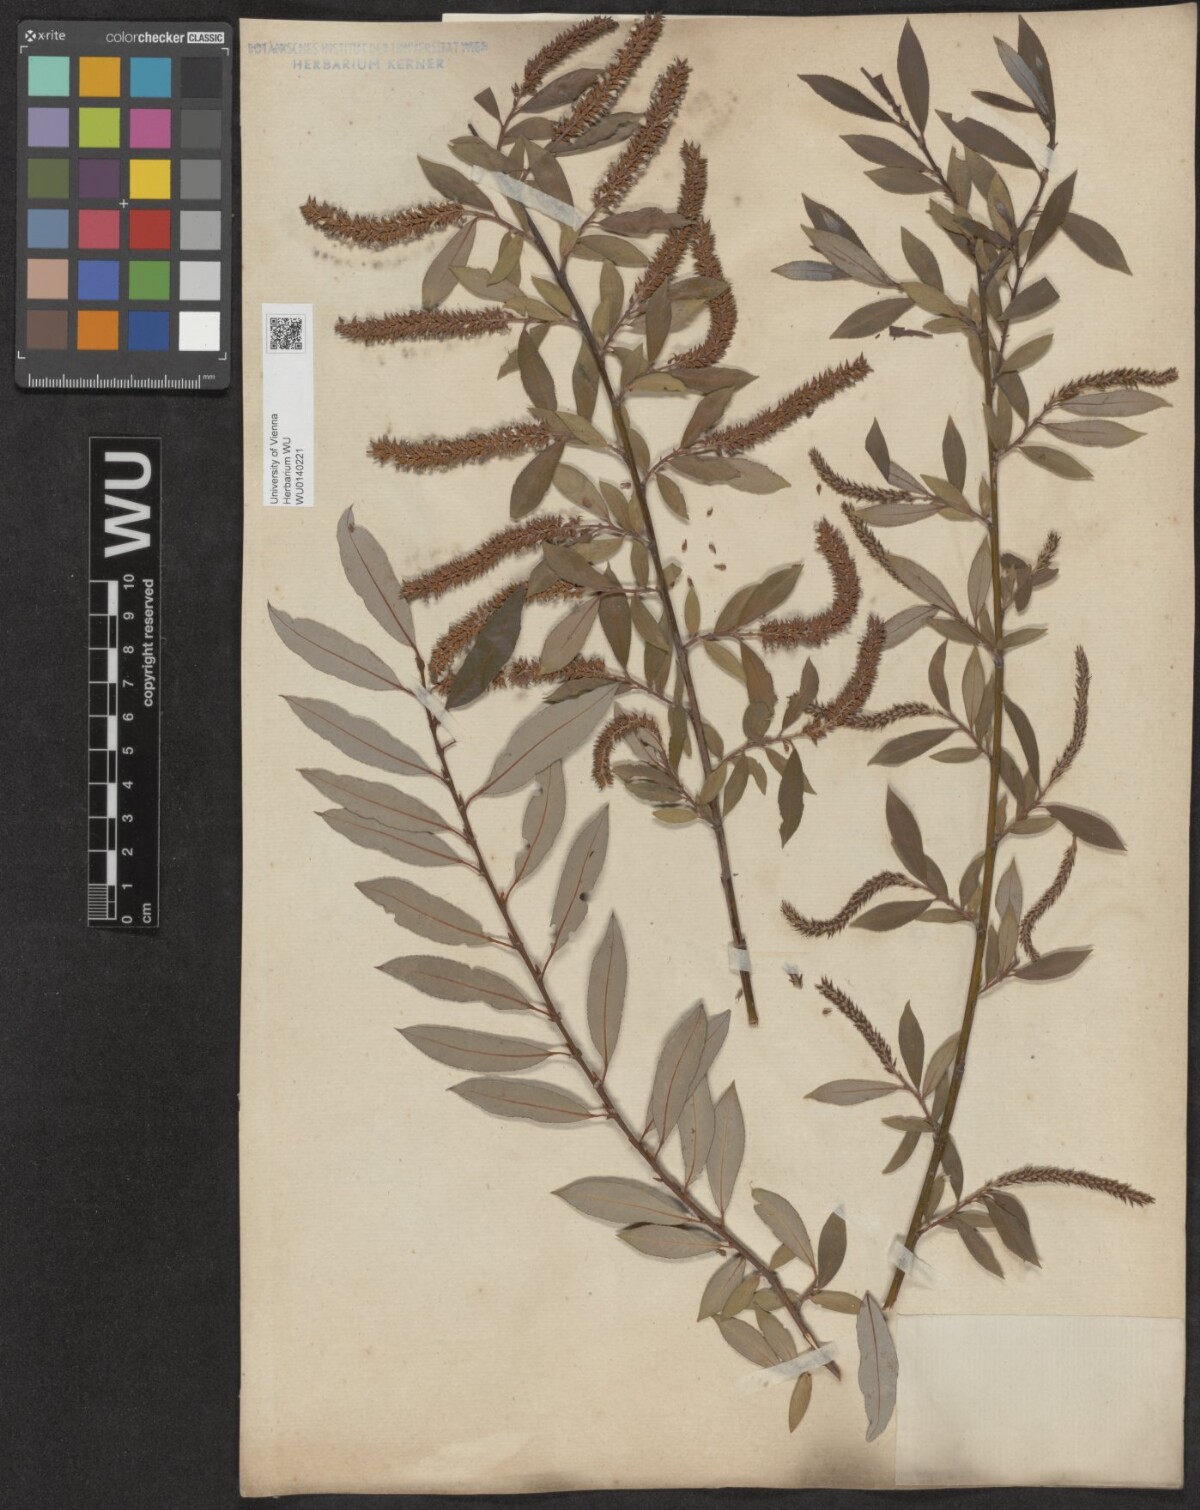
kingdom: Plantae
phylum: Tracheophyta
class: Magnoliopsida
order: Malpighiales
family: Salicaceae
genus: Salix
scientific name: Salix triandra
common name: Almond willow
